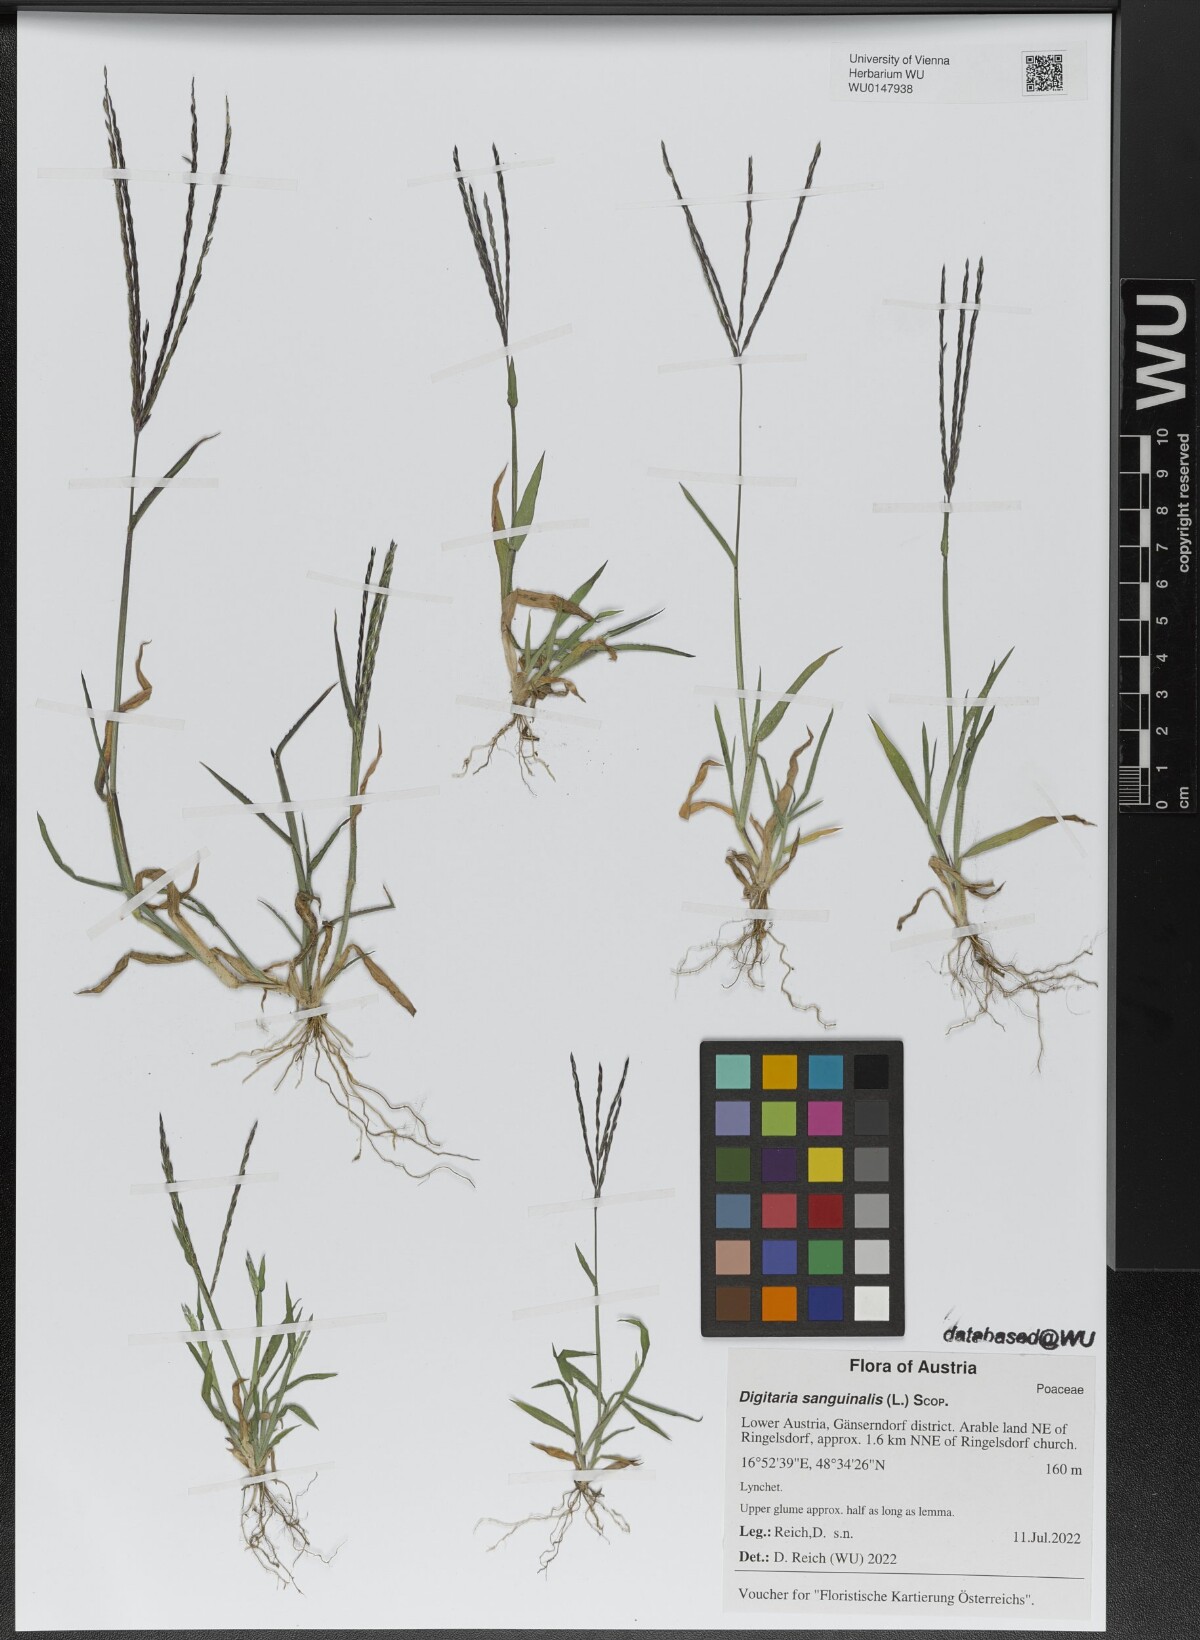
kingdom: Plantae
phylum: Tracheophyta
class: Liliopsida
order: Poales
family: Poaceae
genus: Digitaria
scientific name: Digitaria sanguinalis
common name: Hairy crabgrass
